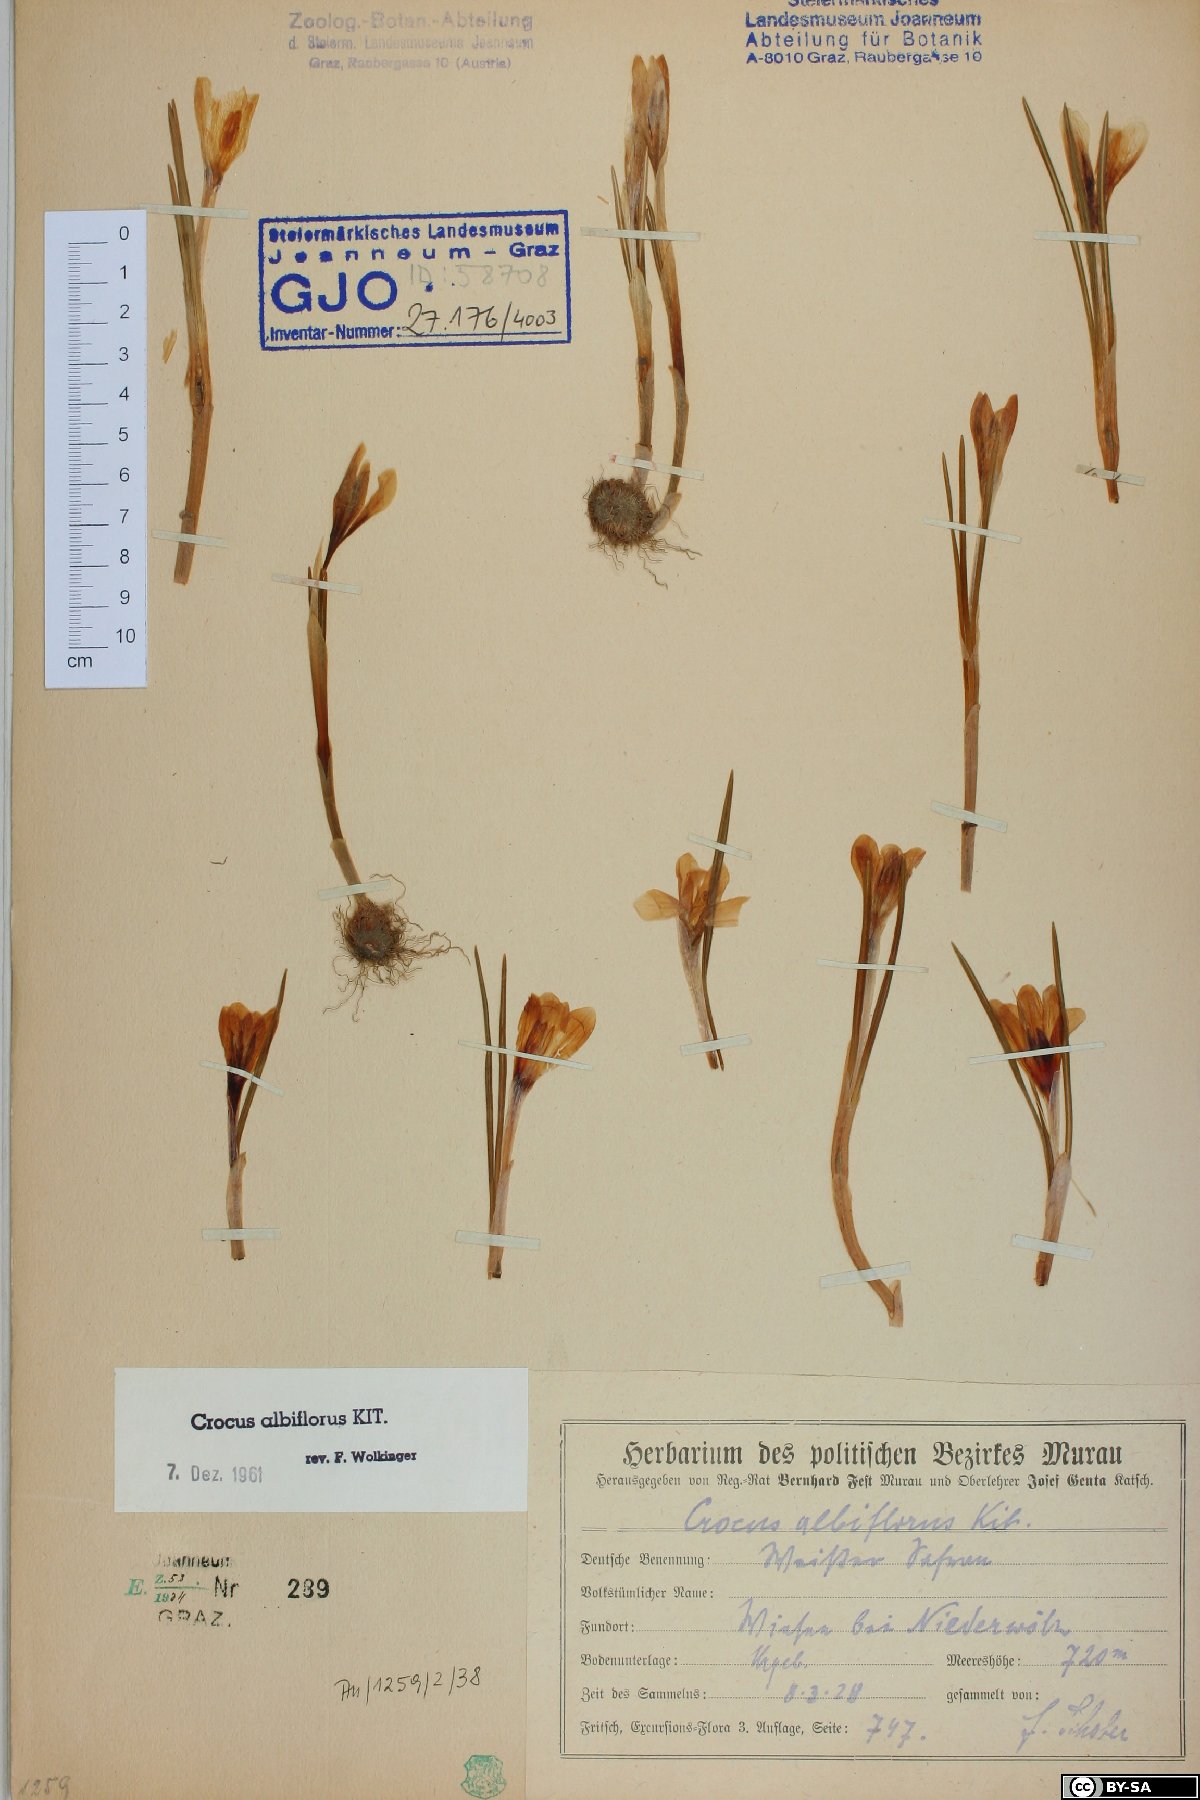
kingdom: Plantae
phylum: Tracheophyta
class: Liliopsida
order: Asparagales
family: Iridaceae
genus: Crocus
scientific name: Crocus vernus
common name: Spring crocus
